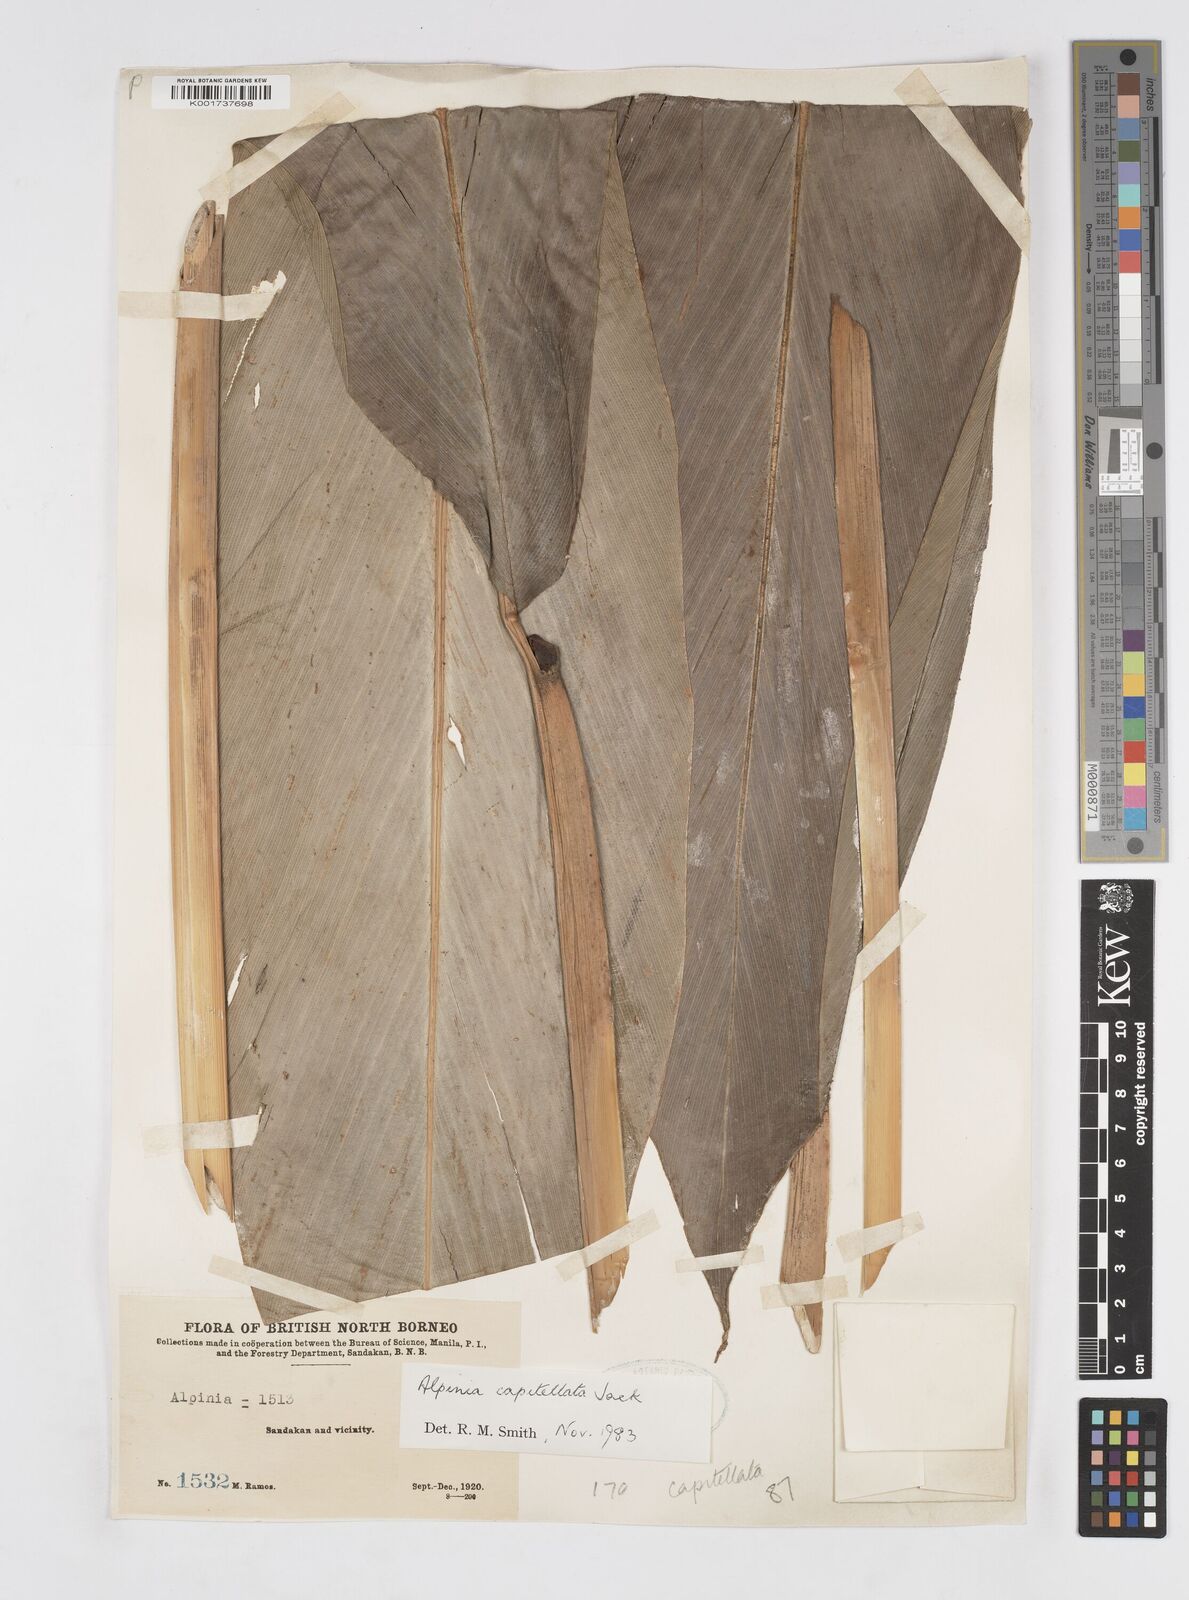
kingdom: Plantae
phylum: Tracheophyta
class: Liliopsida
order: Zingiberales
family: Zingiberaceae
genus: Alpinia
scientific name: Alpinia capitellata
